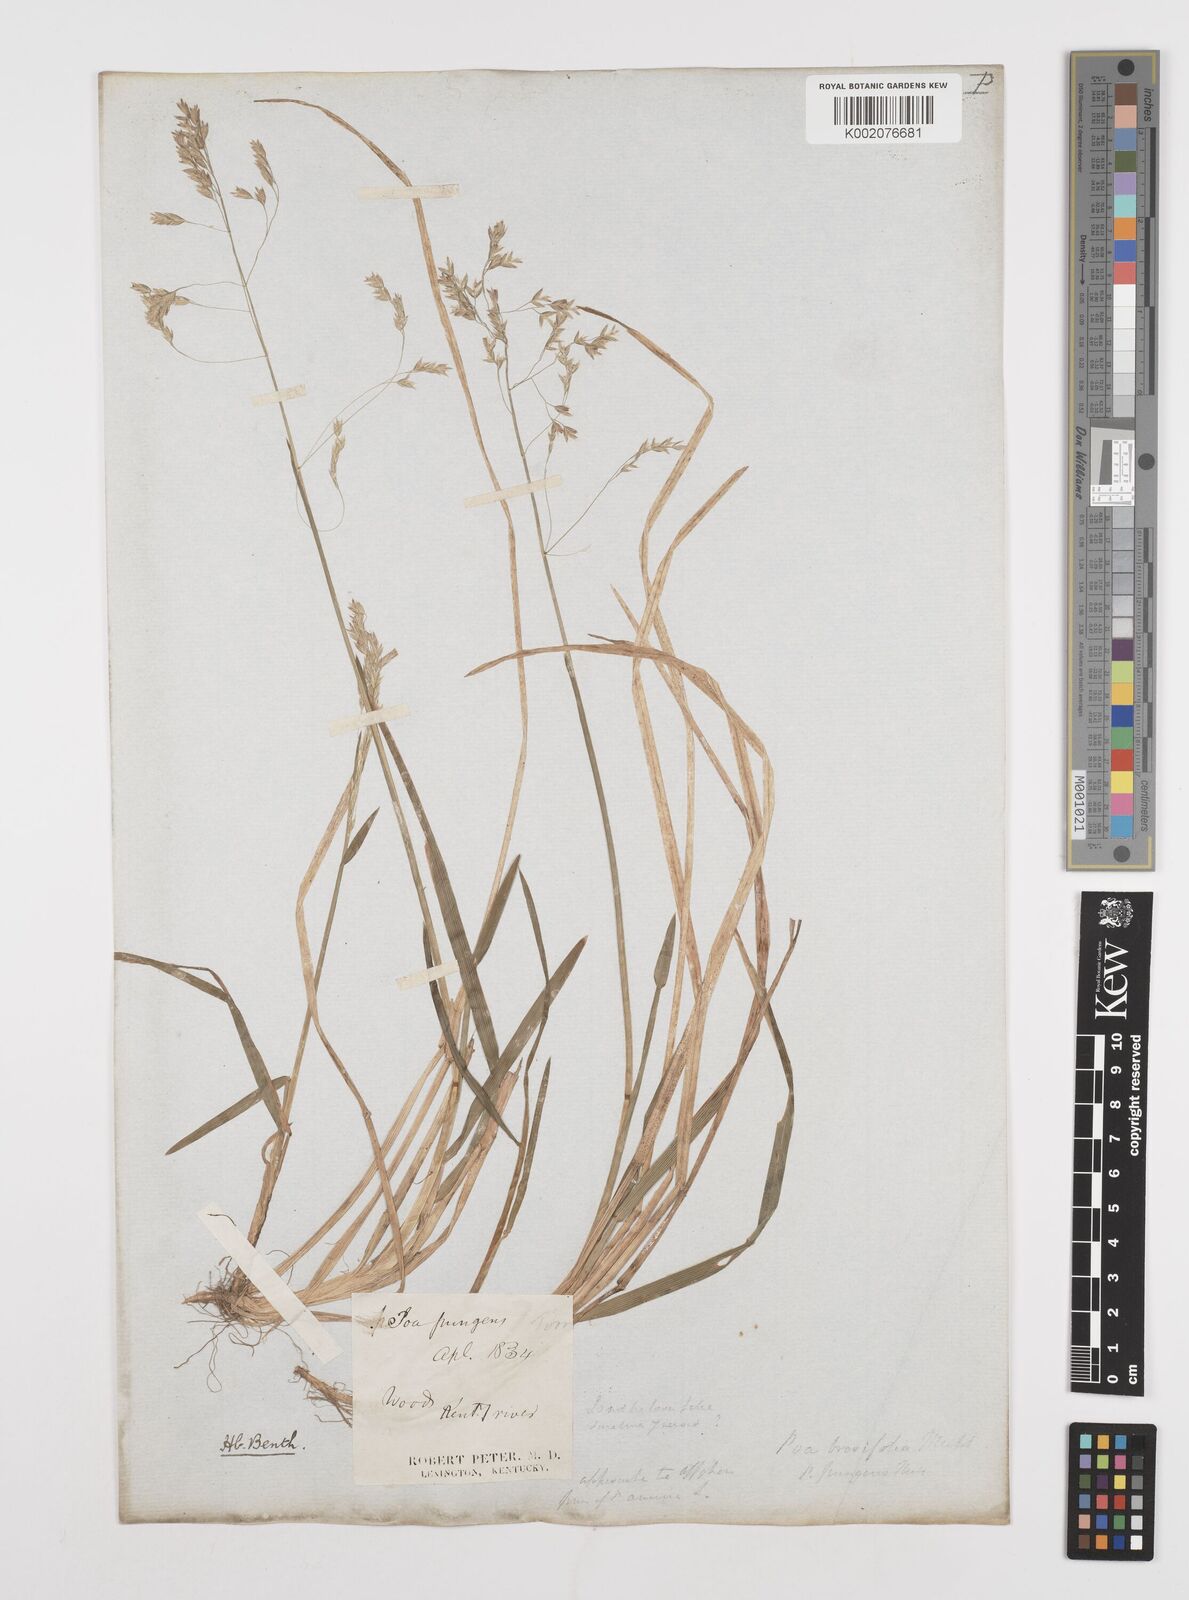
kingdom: Plantae
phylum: Tracheophyta
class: Liliopsida
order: Poales
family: Poaceae
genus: Poa
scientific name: Poa cuspidata
